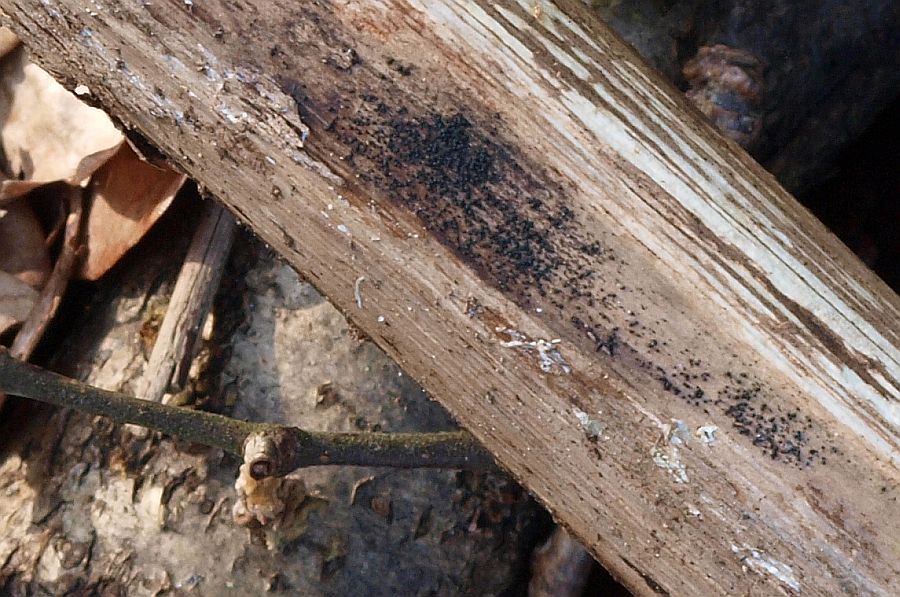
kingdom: Fungi
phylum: Ascomycota
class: Dothideomycetes
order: Pleosporales
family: Melanommataceae
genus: Melanomma
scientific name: Melanomma pulvis-pyrius
